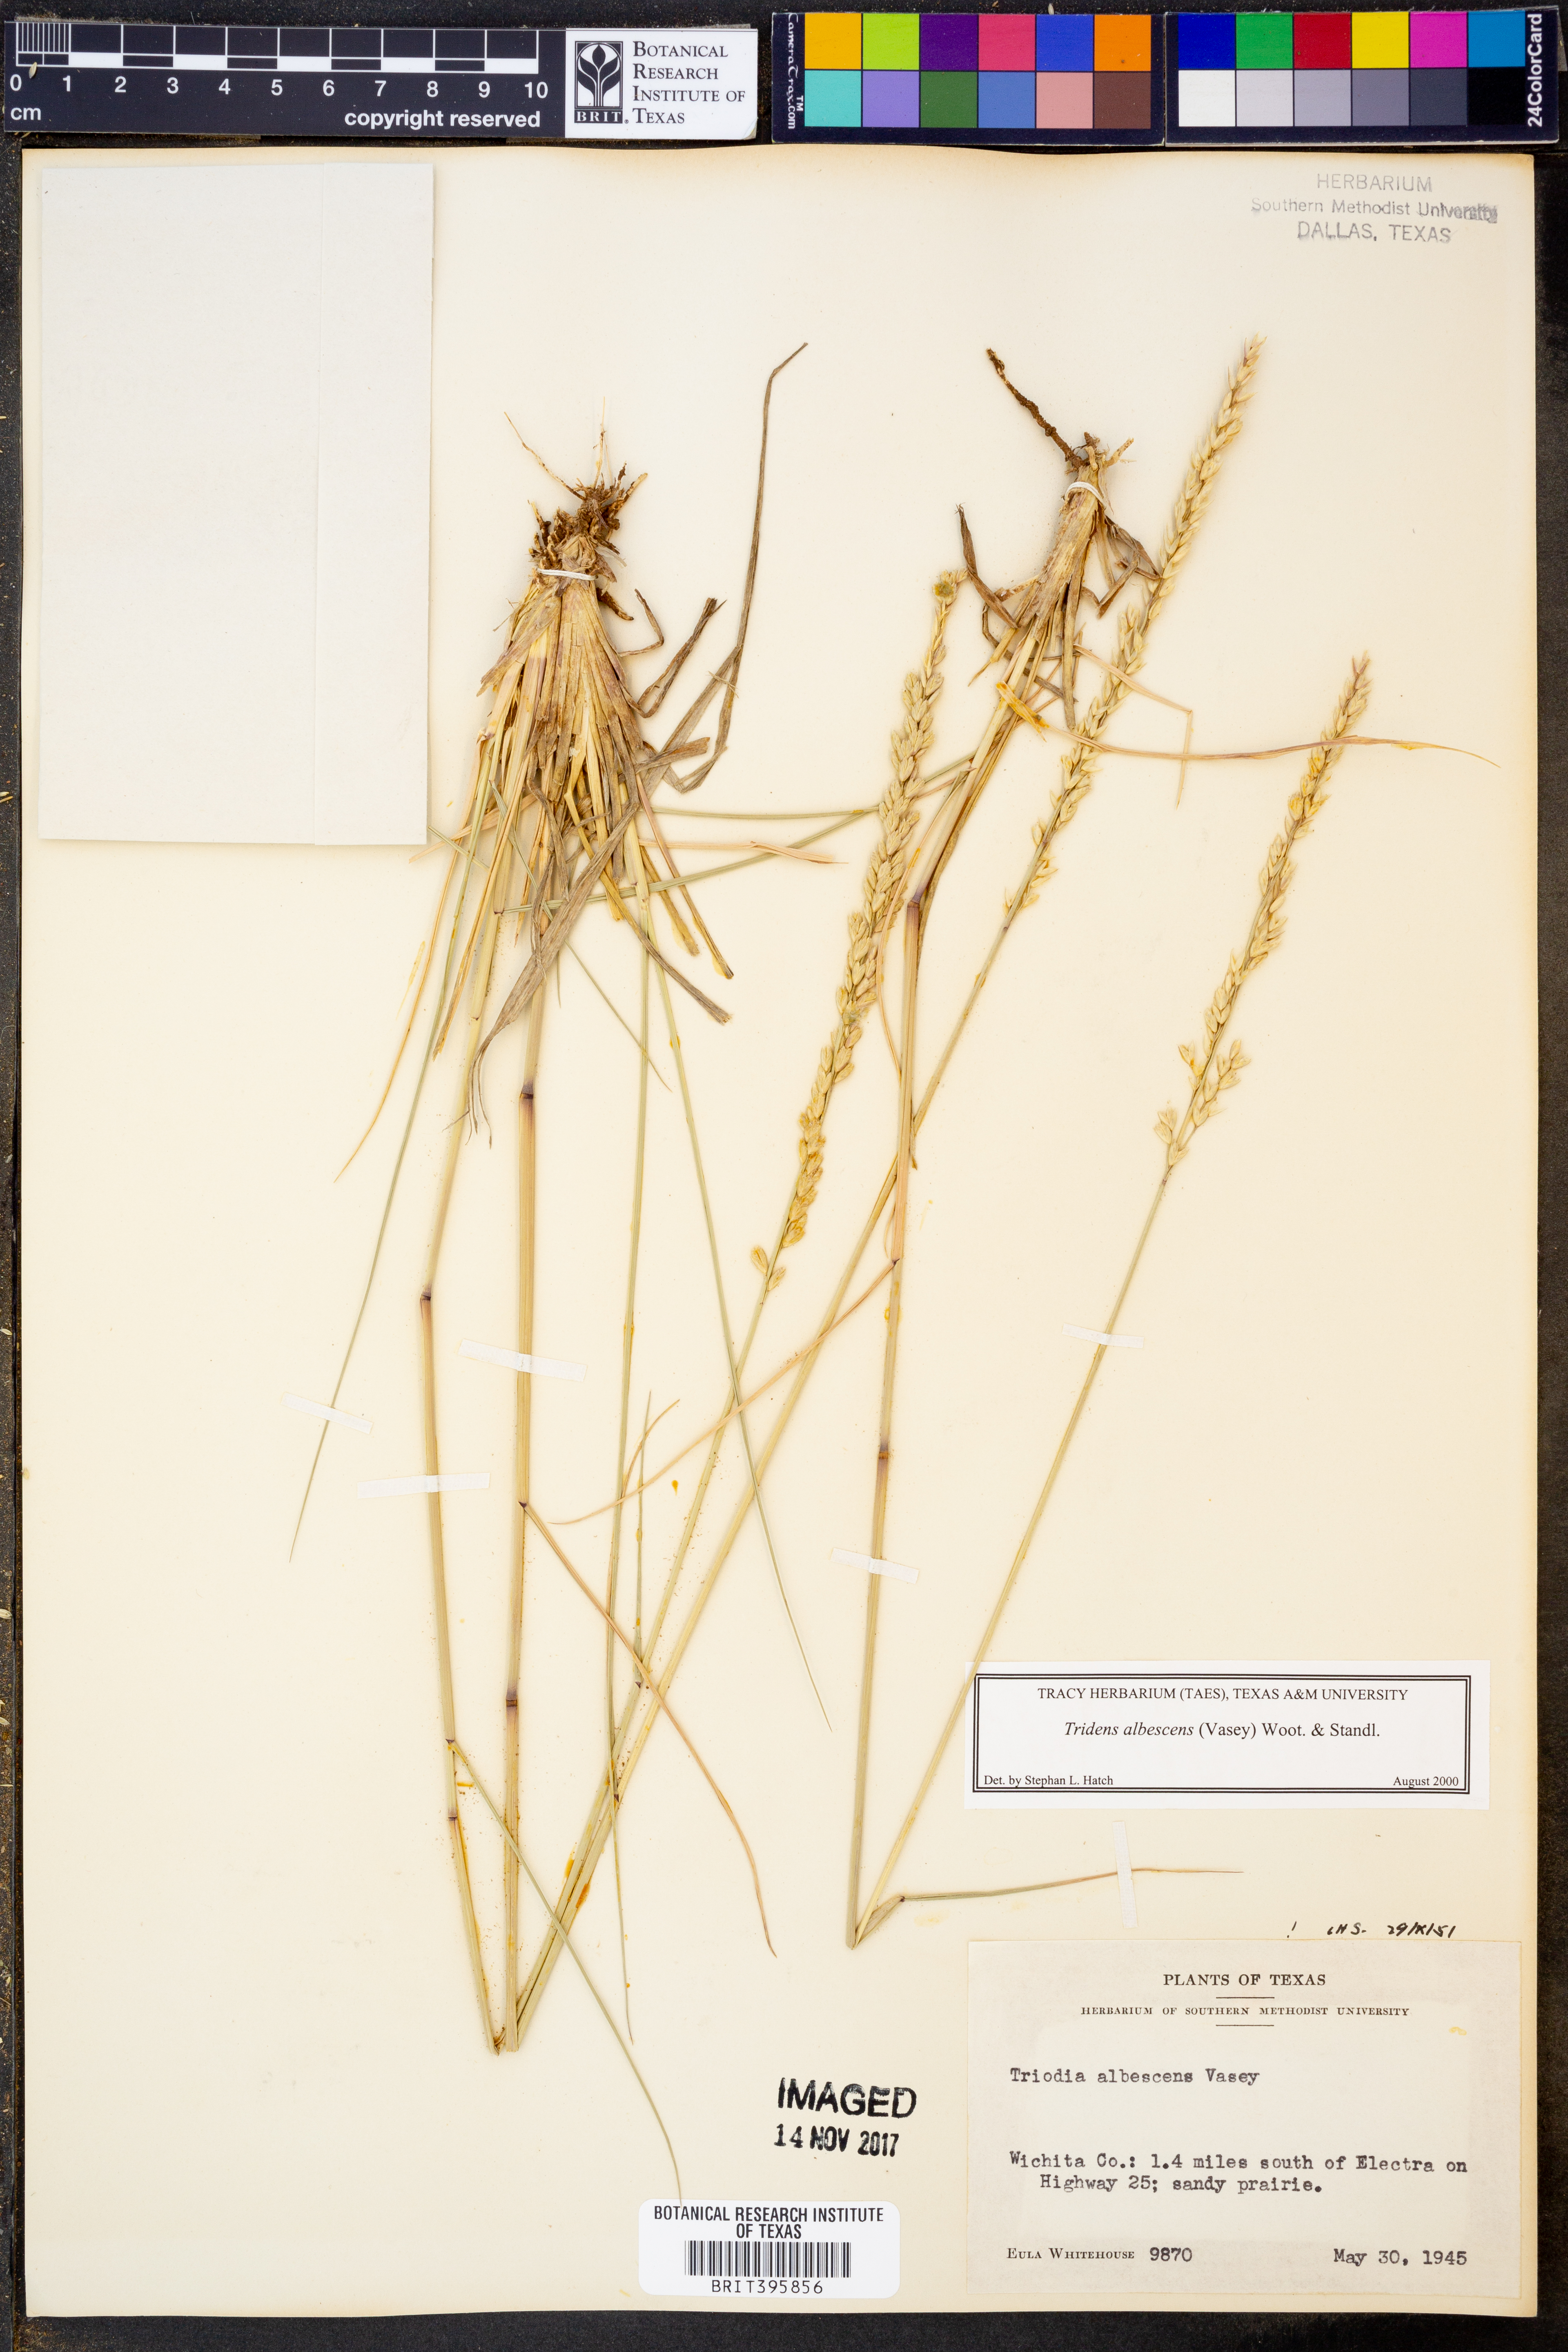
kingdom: Plantae
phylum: Tracheophyta
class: Liliopsida
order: Poales
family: Poaceae
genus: Tridens
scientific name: Tridens albescens
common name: White tridens
